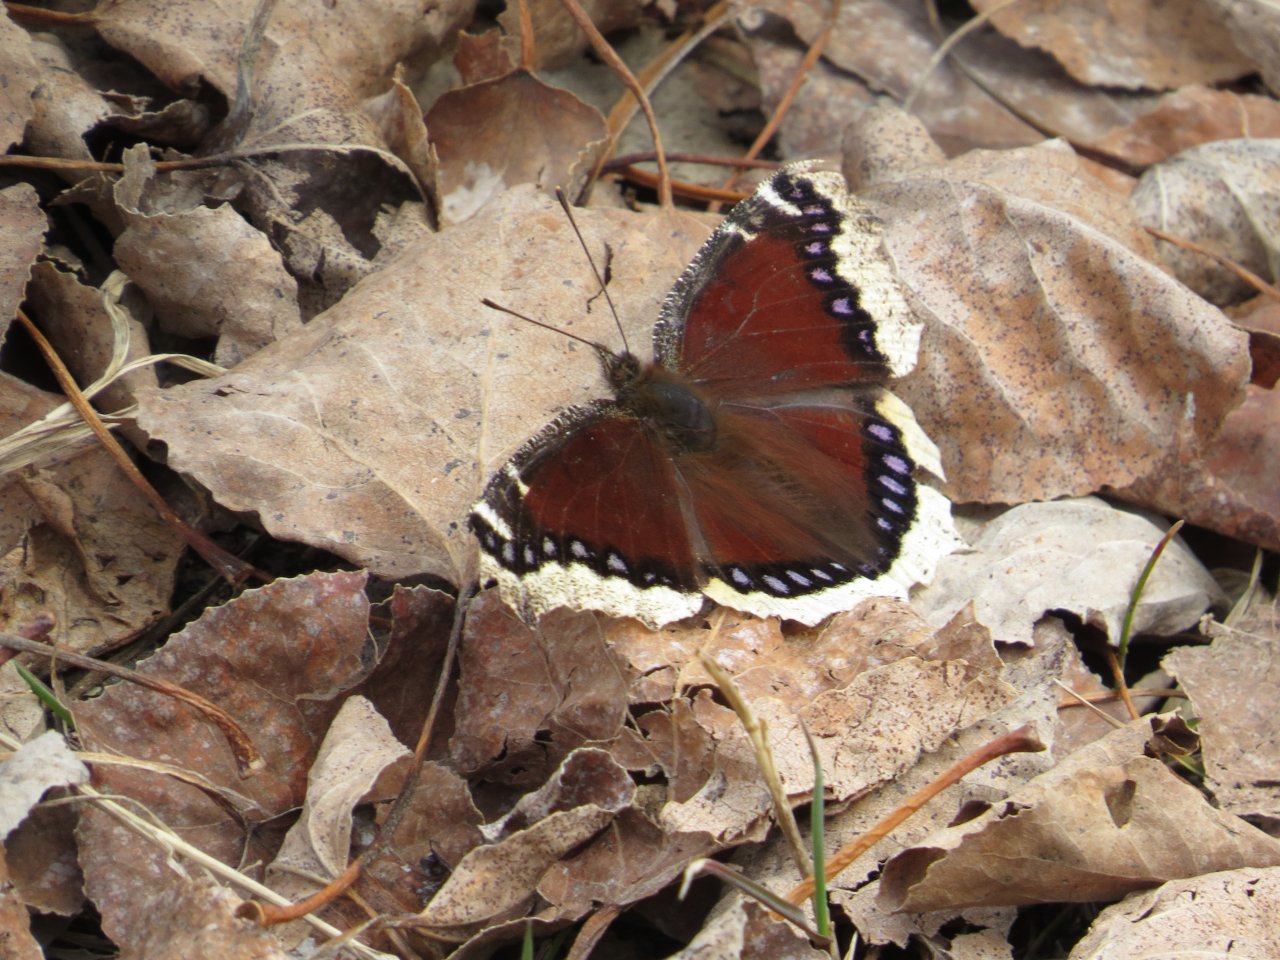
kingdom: Animalia
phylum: Arthropoda
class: Insecta
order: Lepidoptera
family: Nymphalidae
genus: Nymphalis
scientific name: Nymphalis antiopa
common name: Mourning Cloak
